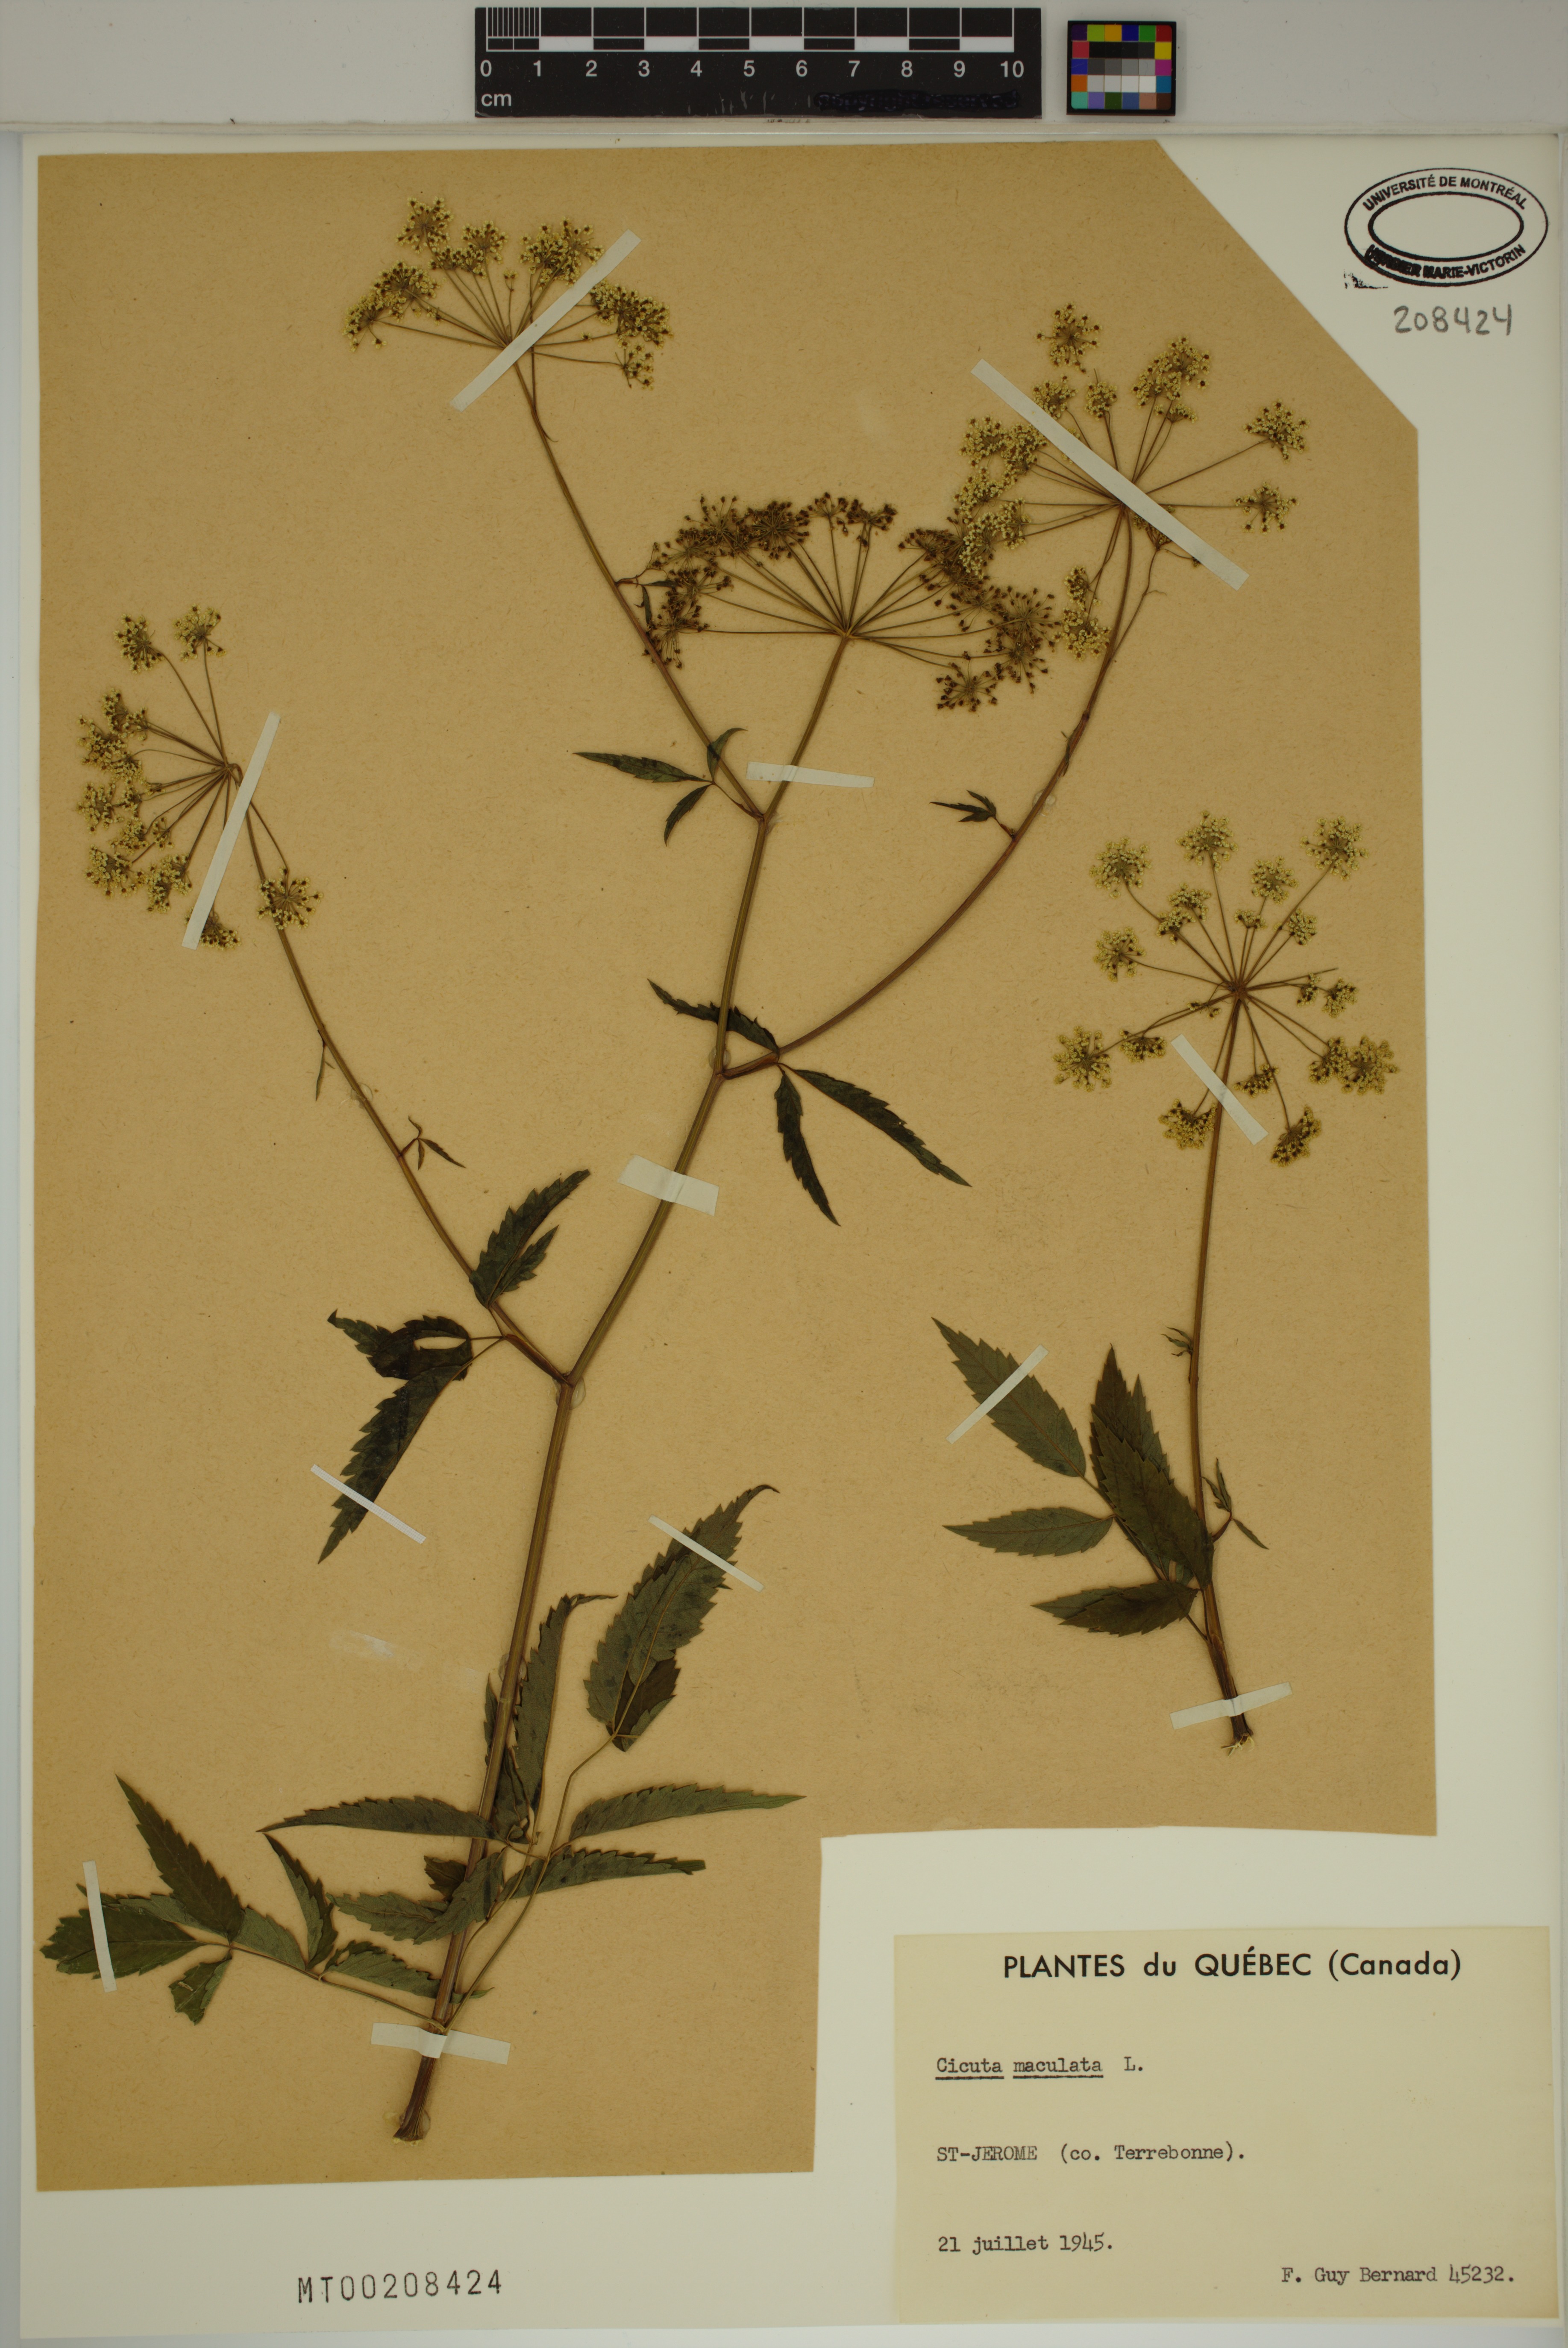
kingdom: Plantae
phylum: Tracheophyta
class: Magnoliopsida
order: Apiales
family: Apiaceae
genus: Cicuta
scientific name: Cicuta maculata
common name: Spotted cowbane
